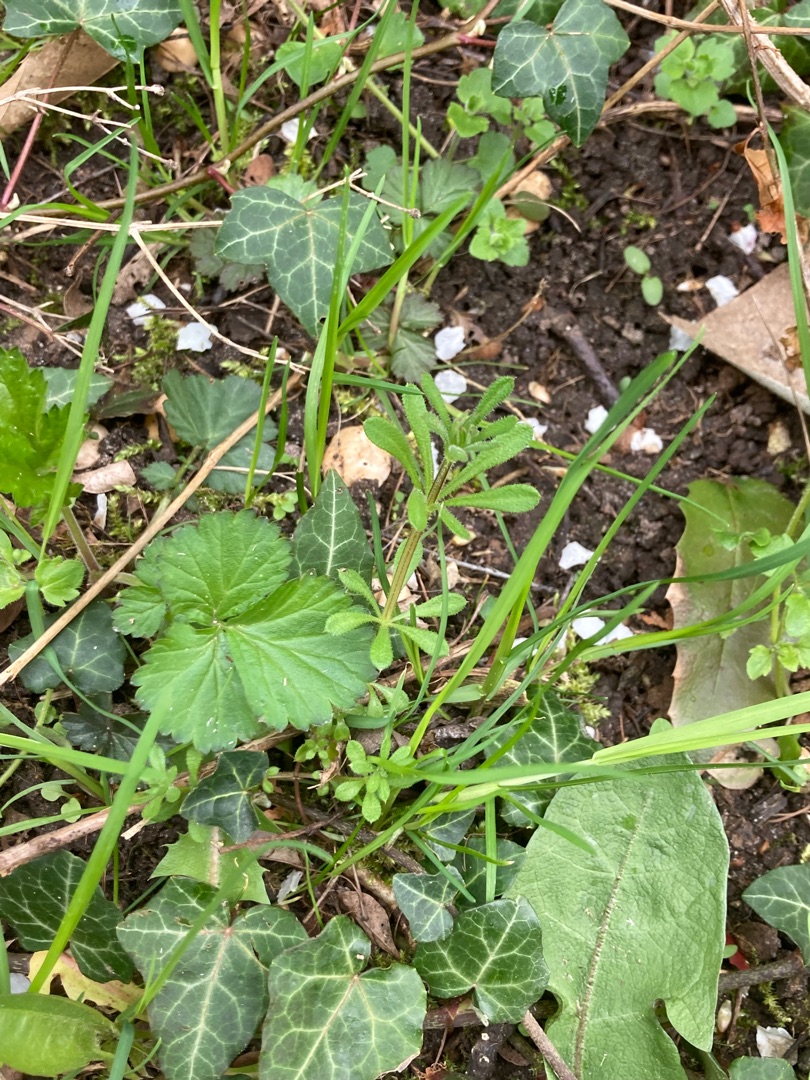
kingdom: Plantae
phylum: Tracheophyta
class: Magnoliopsida
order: Gentianales
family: Rubiaceae
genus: Galium
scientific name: Galium aparine
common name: Burre-snerre
